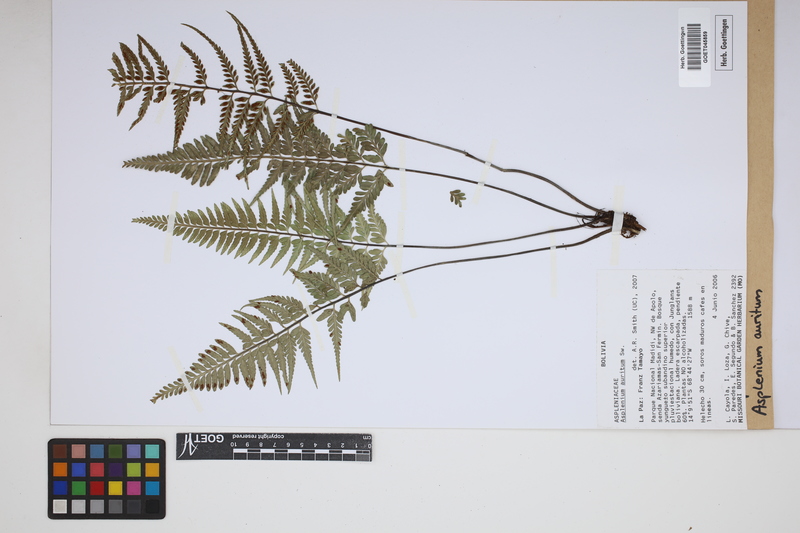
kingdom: Plantae
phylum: Tracheophyta
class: Polypodiopsida
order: Polypodiales
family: Aspleniaceae
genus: Asplenium
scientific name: Asplenium auritum
